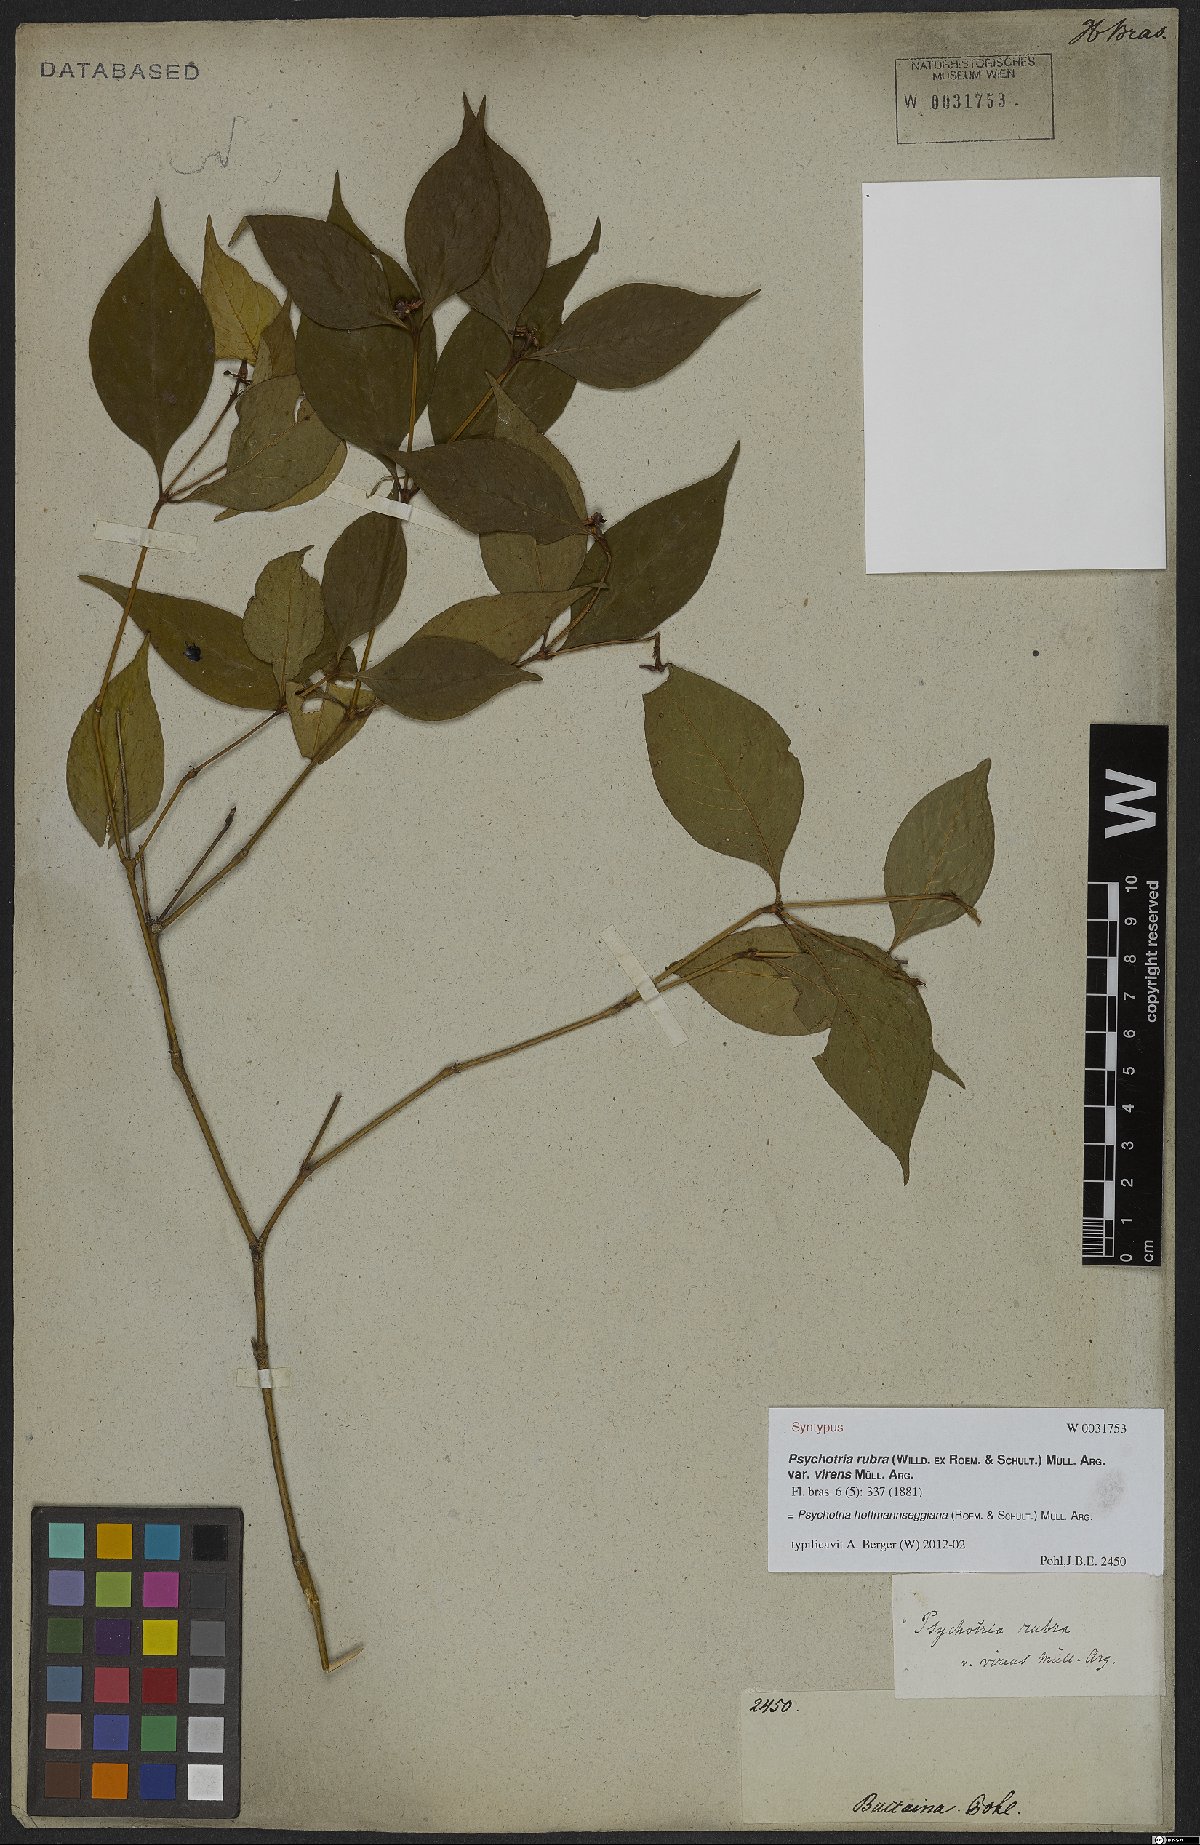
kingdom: Plantae
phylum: Tracheophyta
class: Magnoliopsida
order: Gentianales
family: Rubiaceae
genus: Palicourea
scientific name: Palicourea hoffmannseggiana
